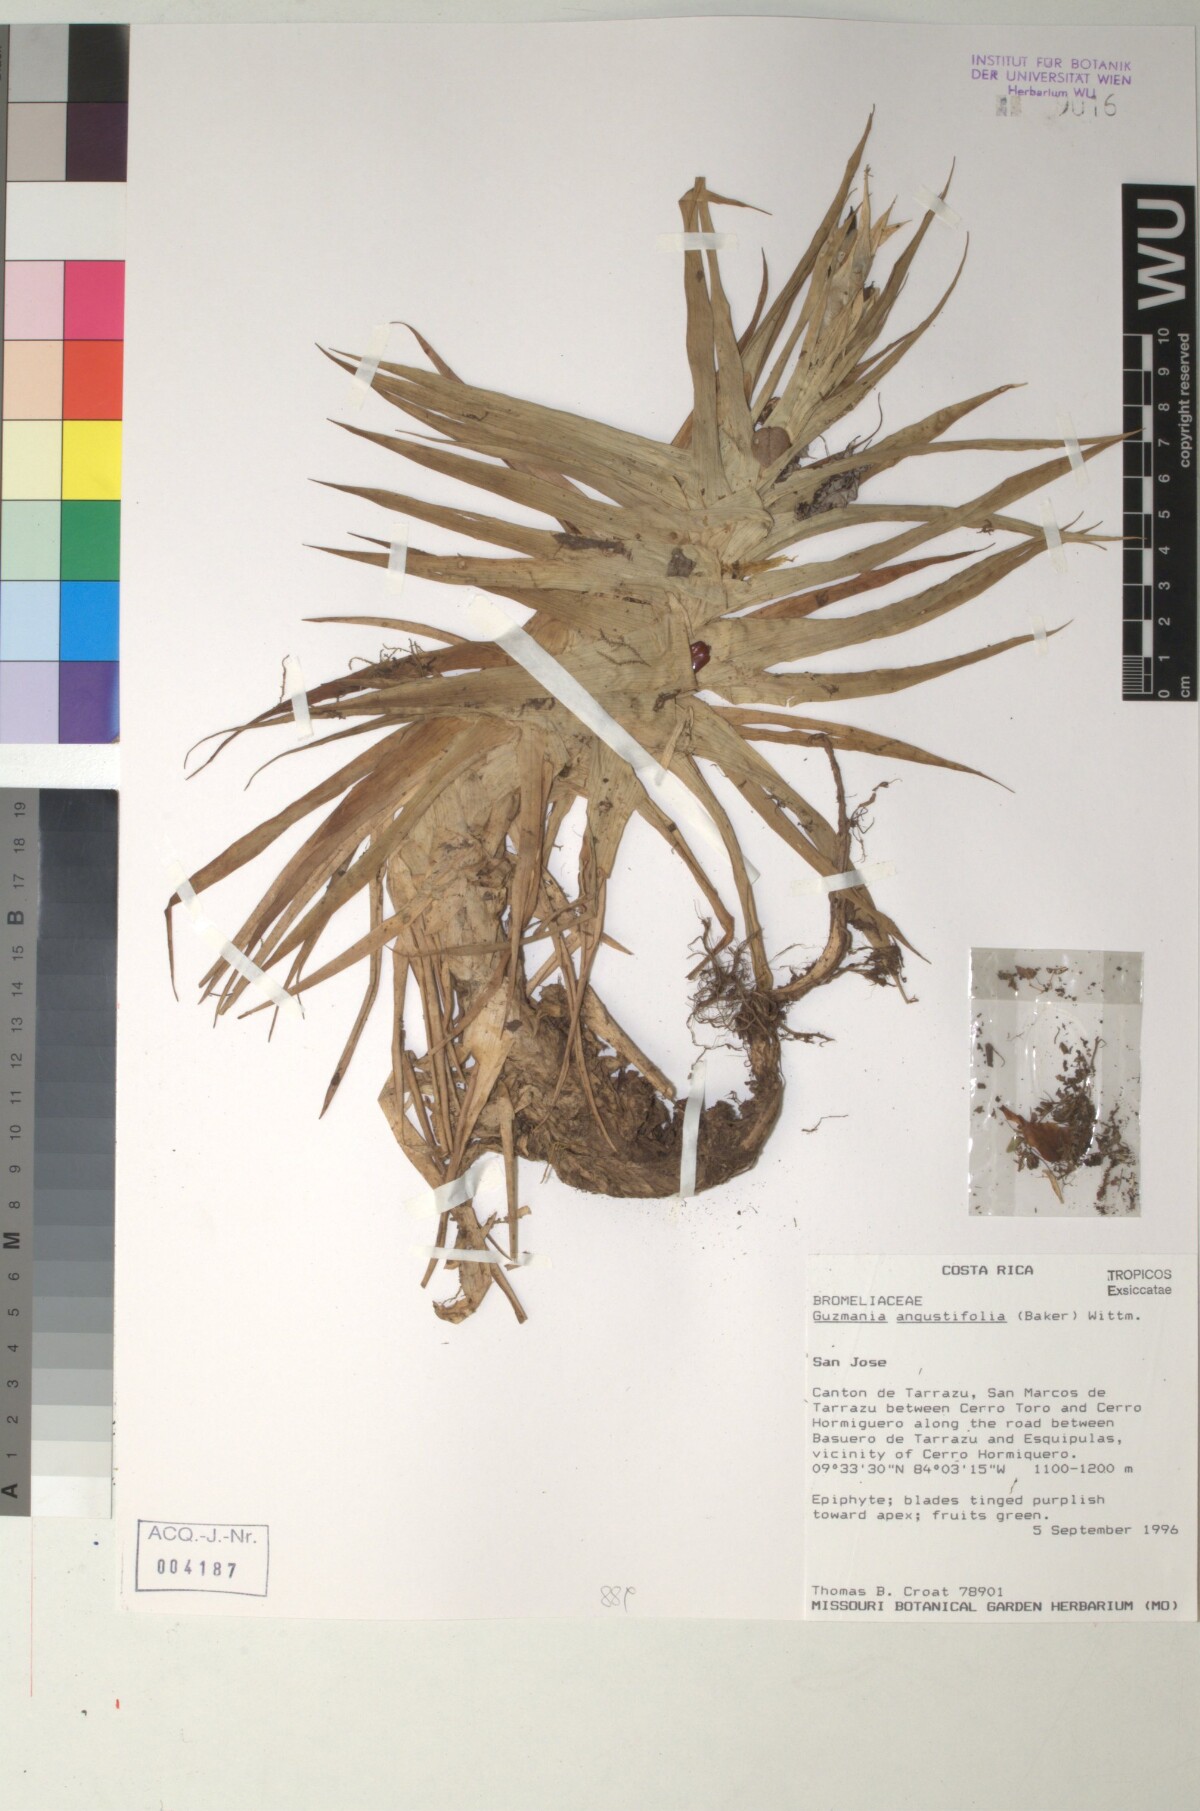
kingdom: Plantae
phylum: Tracheophyta
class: Liliopsida
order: Poales
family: Bromeliaceae
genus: Guzmania
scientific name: Guzmania angustifolia
